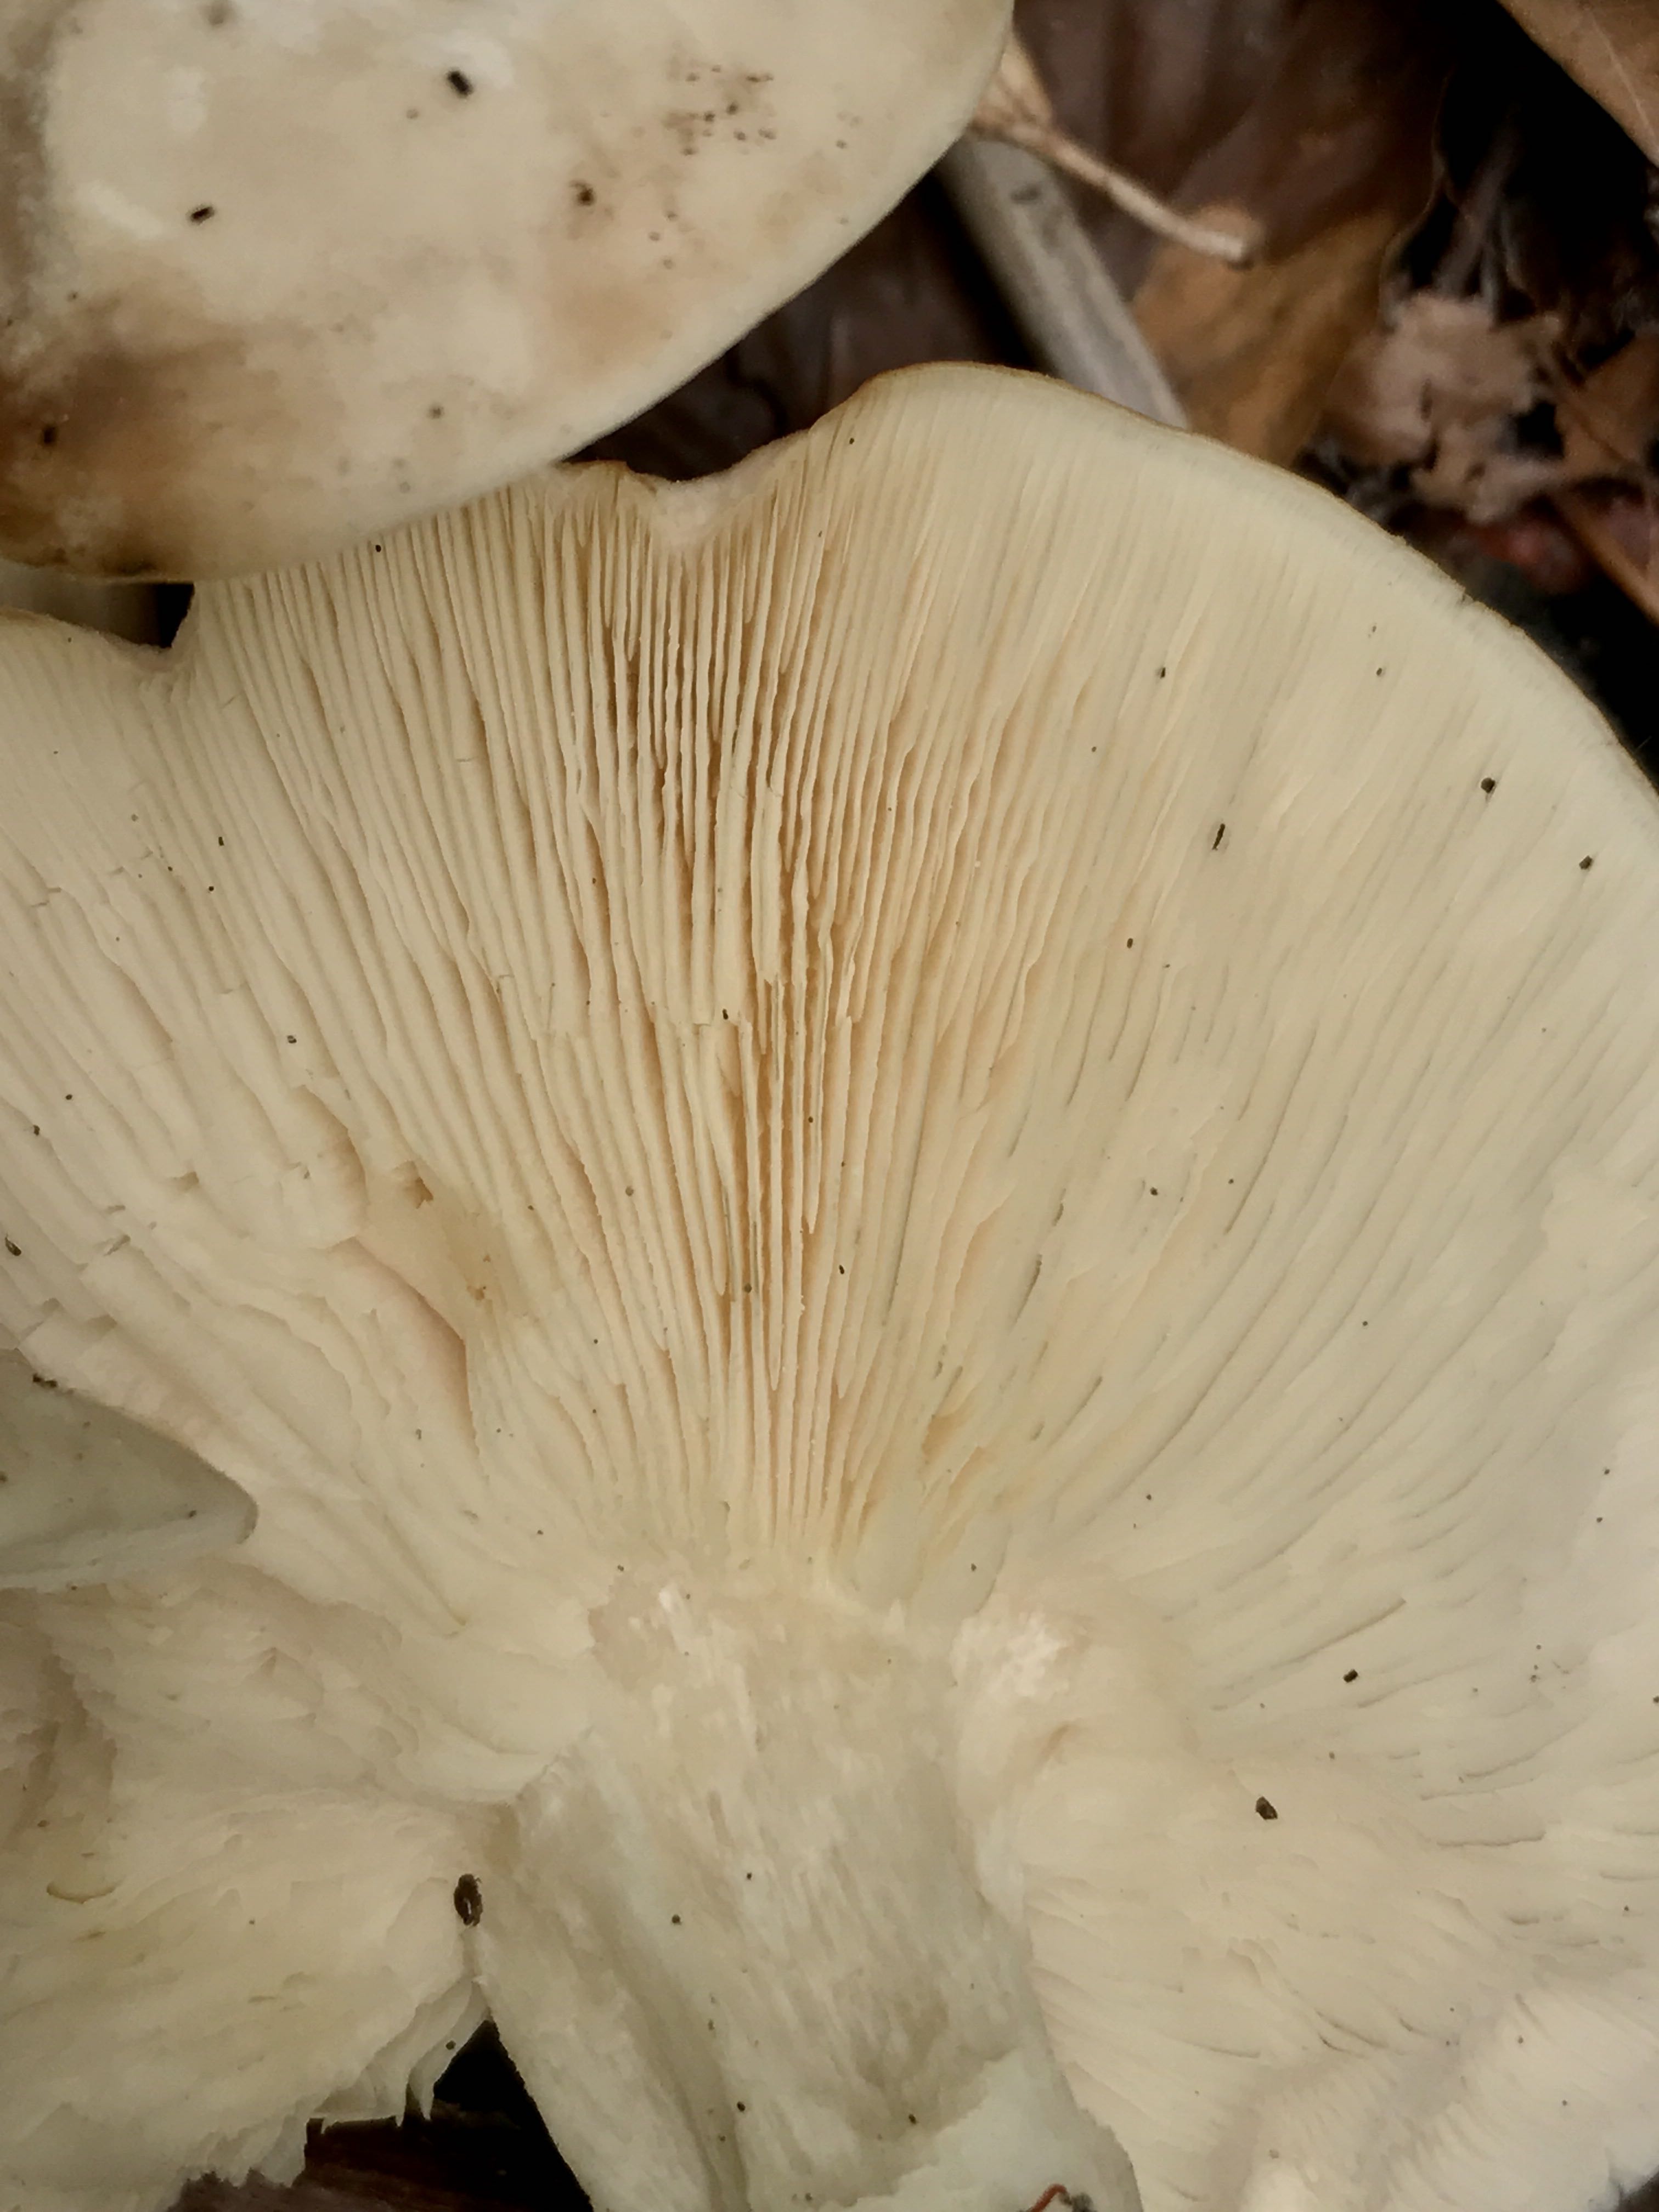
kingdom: Fungi
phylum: Basidiomycota
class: Agaricomycetes
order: Agaricales
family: Lyophyllaceae
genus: Calocybe
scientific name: Calocybe gambosa
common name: vårmusseron
